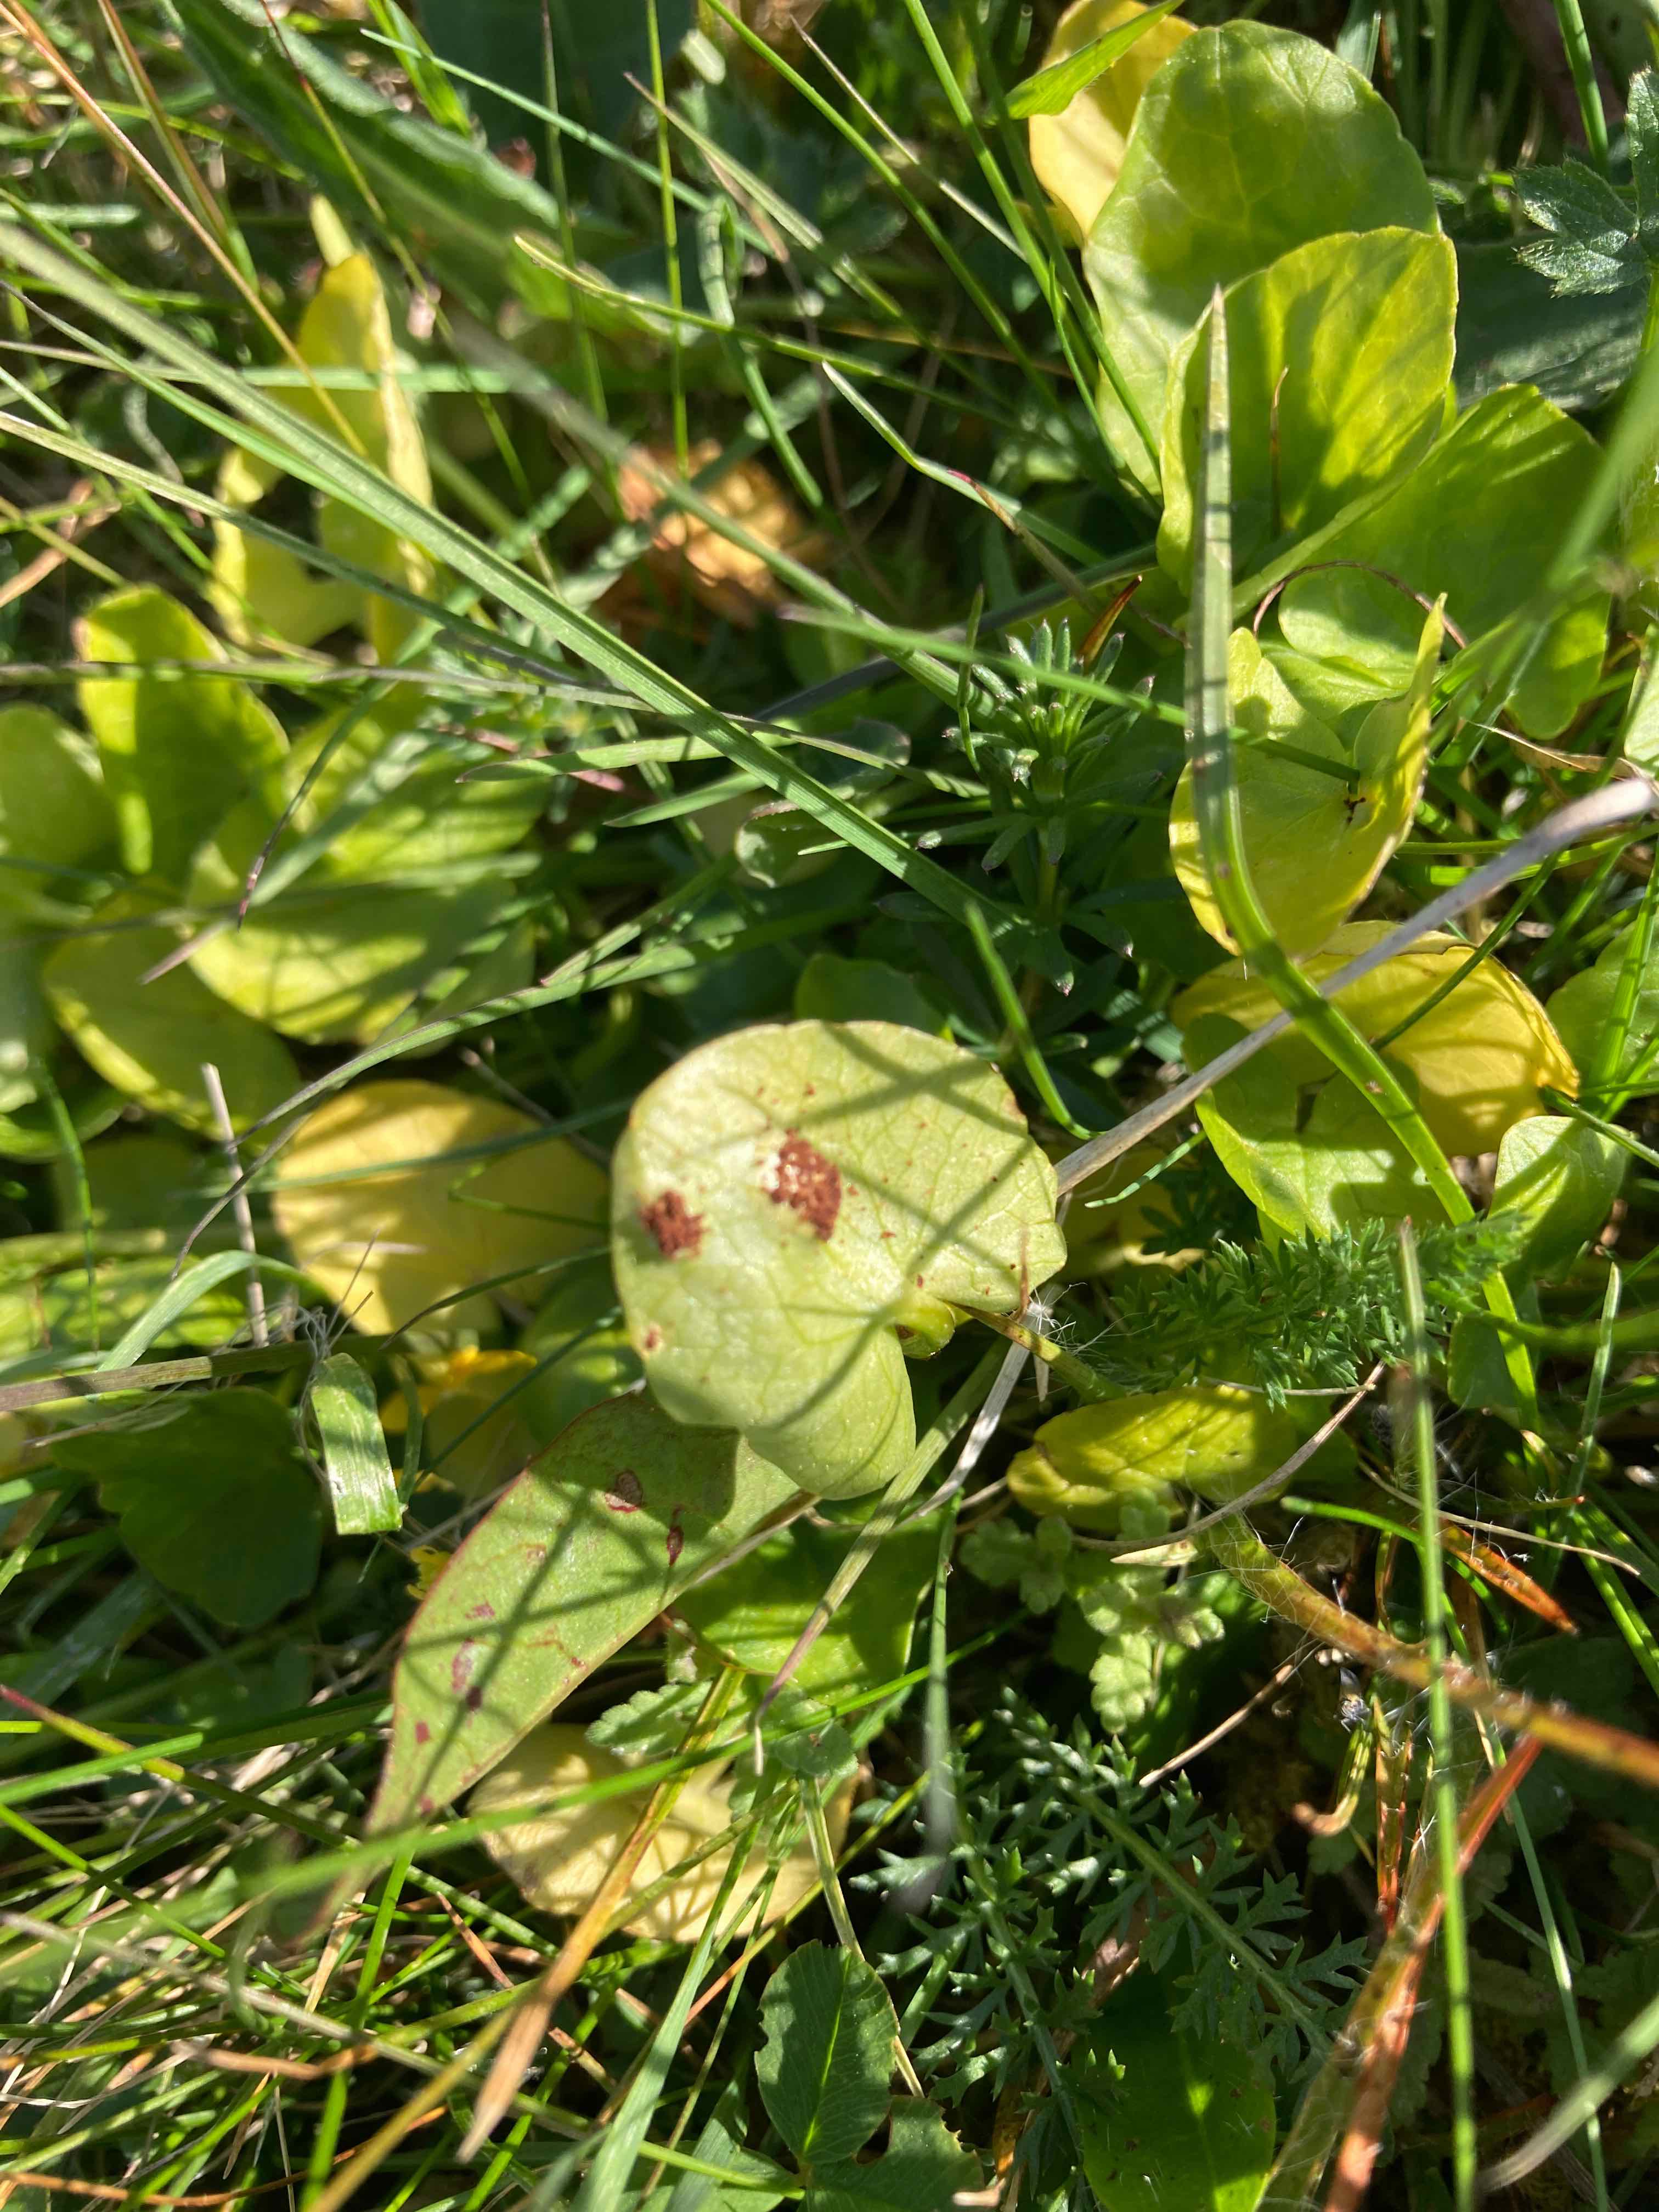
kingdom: Fungi
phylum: Basidiomycota
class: Pucciniomycetes
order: Pucciniales
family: Pucciniaceae
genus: Uromyces
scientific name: Uromyces ficariae
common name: vorterod-encellerust
